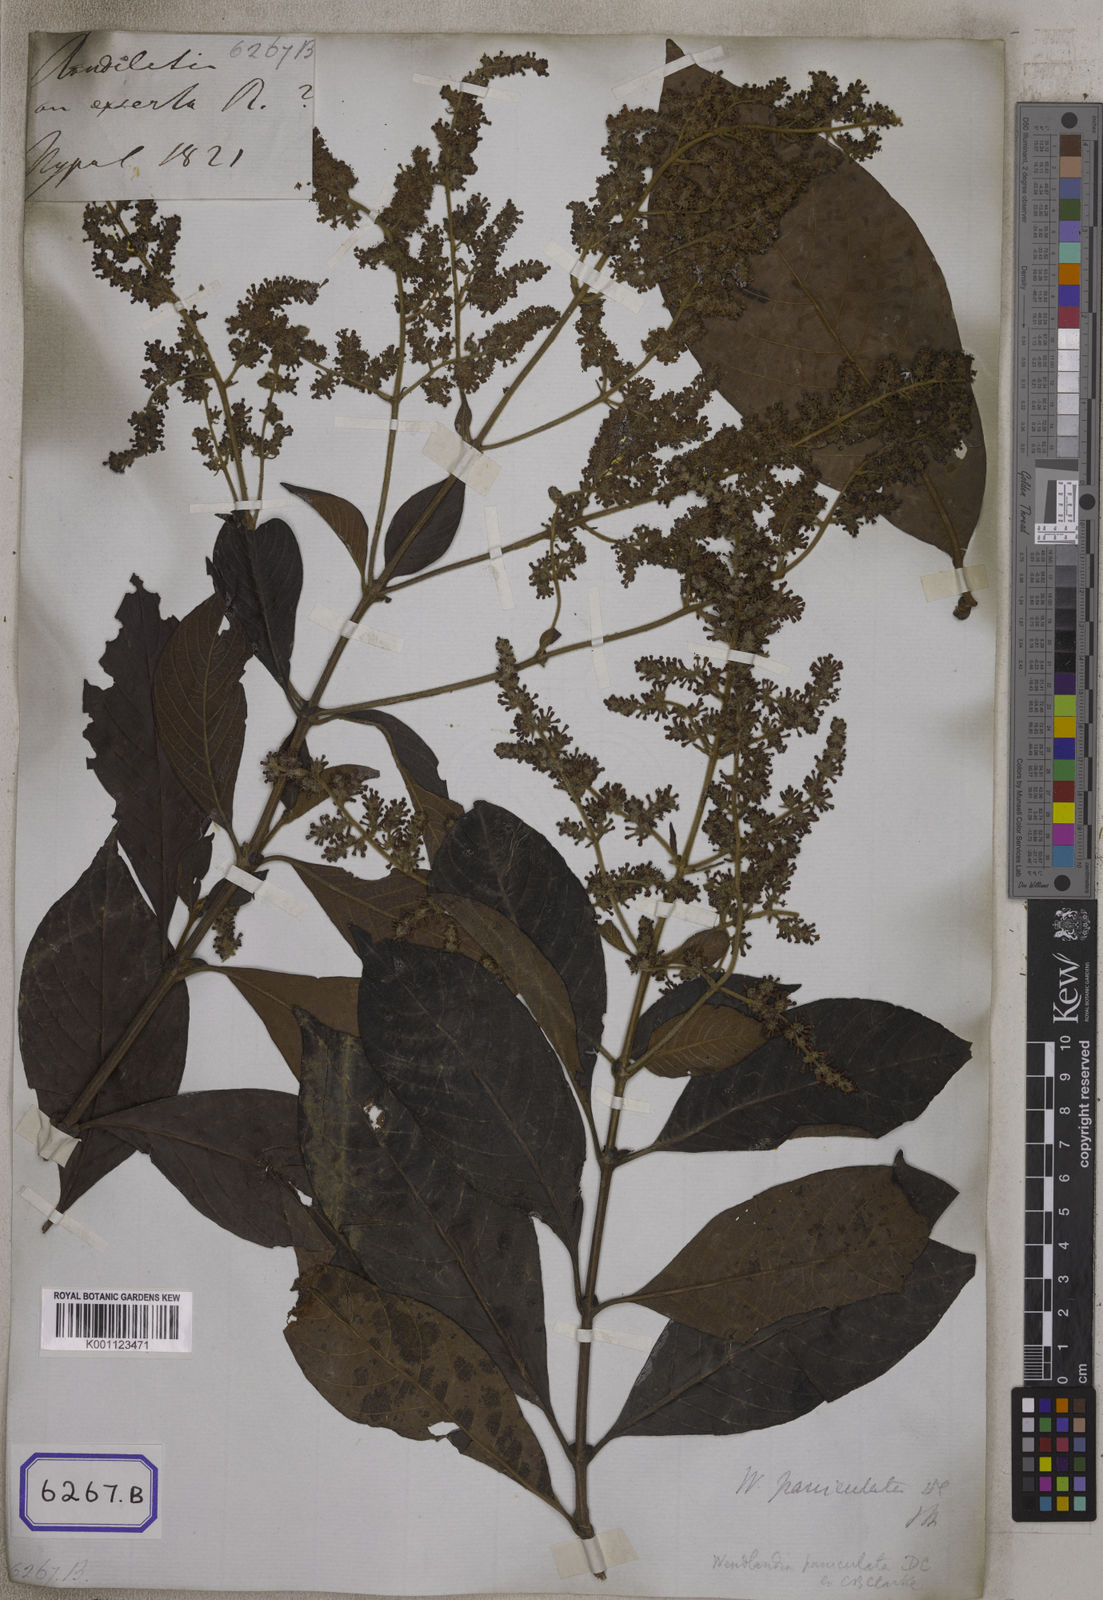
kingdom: Plantae
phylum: Tracheophyta
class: Magnoliopsida
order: Gentianales
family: Rubiaceae
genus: Wendlandia
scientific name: Wendlandia heynei
